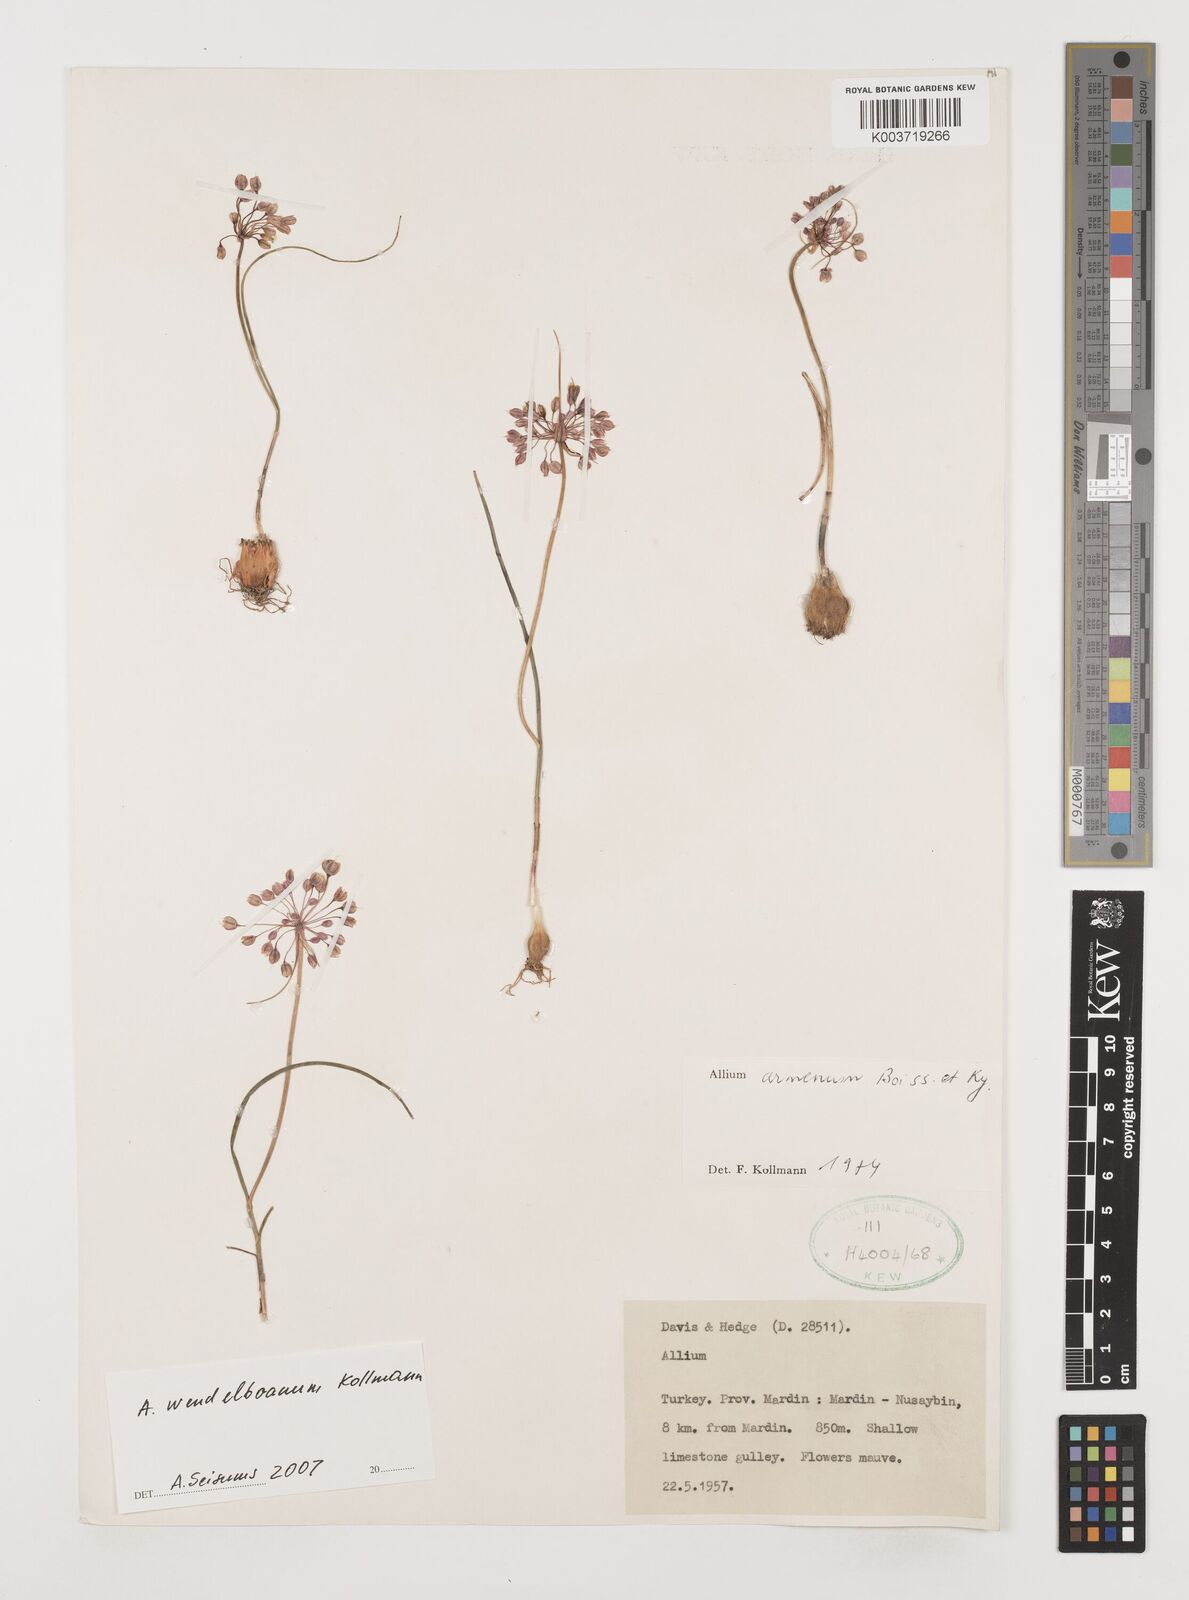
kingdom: Plantae
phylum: Tracheophyta
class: Liliopsida
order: Asparagales
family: Amaryllidaceae
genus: Allium
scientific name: Allium armenum
